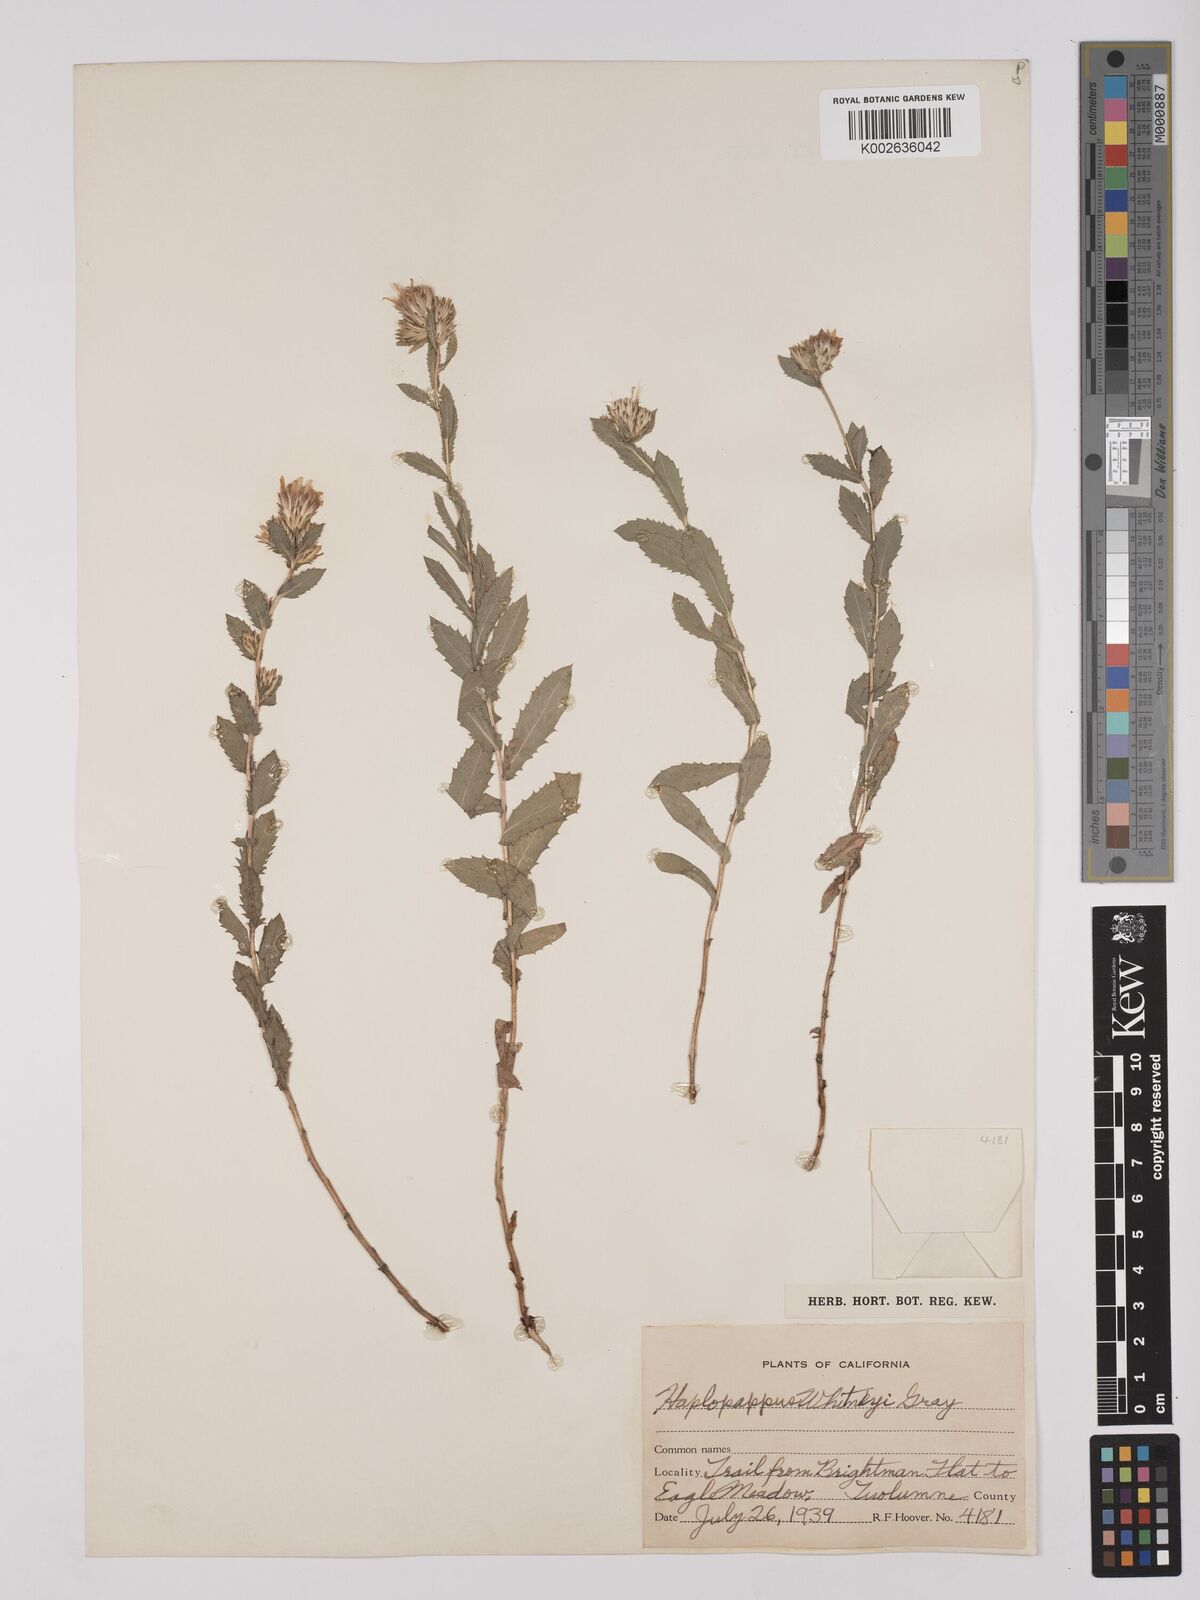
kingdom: Plantae
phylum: Tracheophyta
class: Magnoliopsida
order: Asterales
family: Asteraceae
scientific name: Asteraceae
